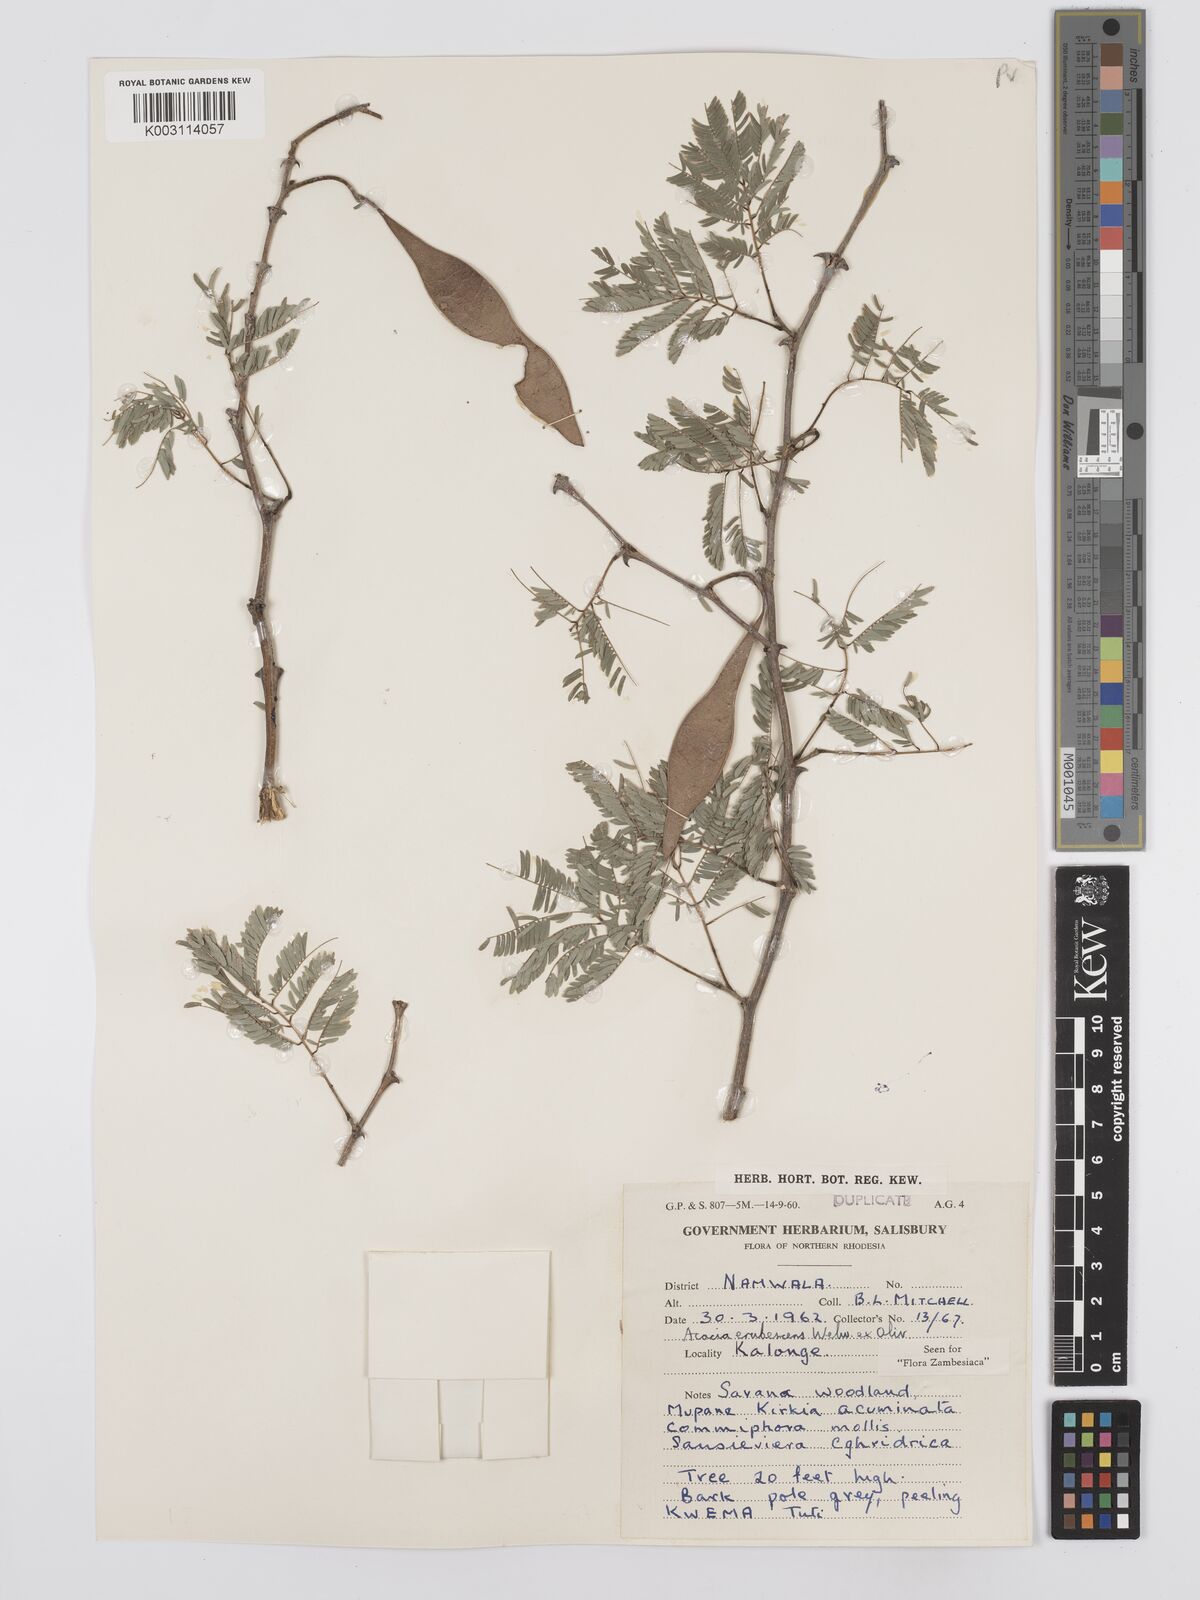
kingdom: Plantae
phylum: Tracheophyta
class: Magnoliopsida
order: Fabales
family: Fabaceae
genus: Senegalia
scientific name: Senegalia erubescens
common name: Bluethorn
